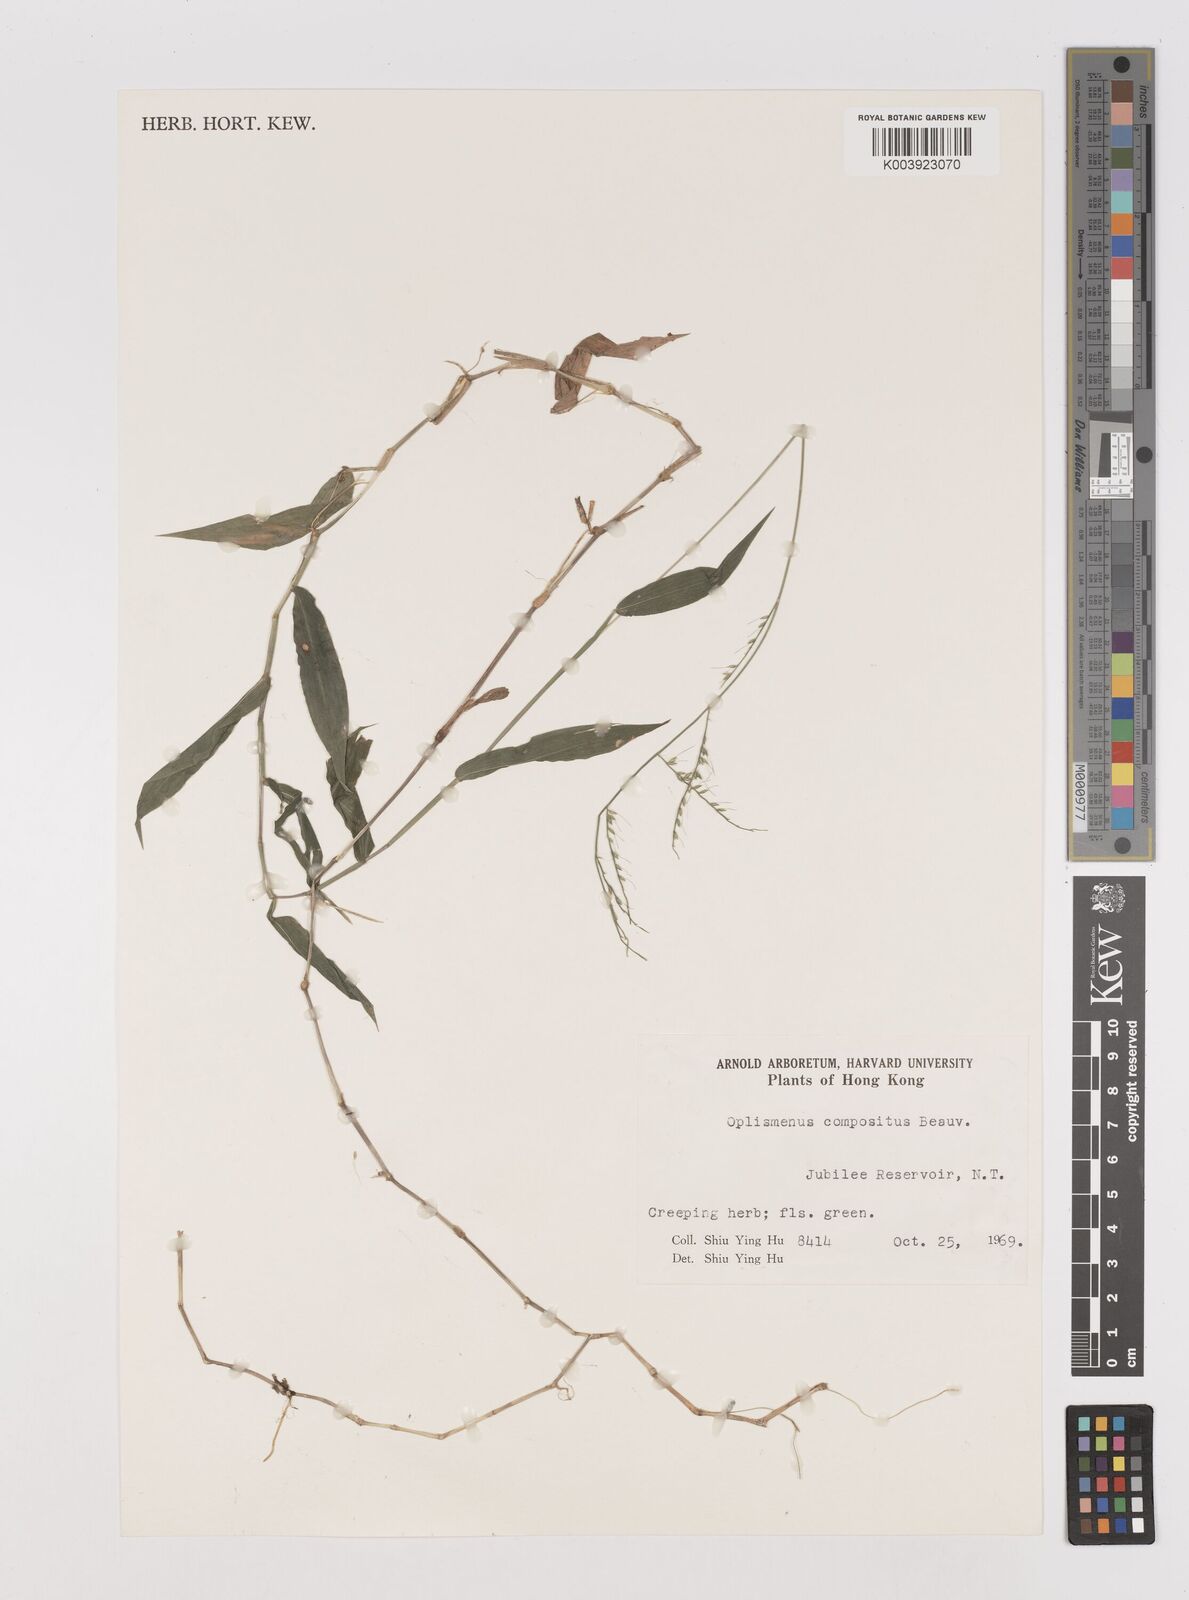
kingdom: Plantae
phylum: Tracheophyta
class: Liliopsida
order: Poales
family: Poaceae
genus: Oplismenus
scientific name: Oplismenus compositus
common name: Running mountain grass
